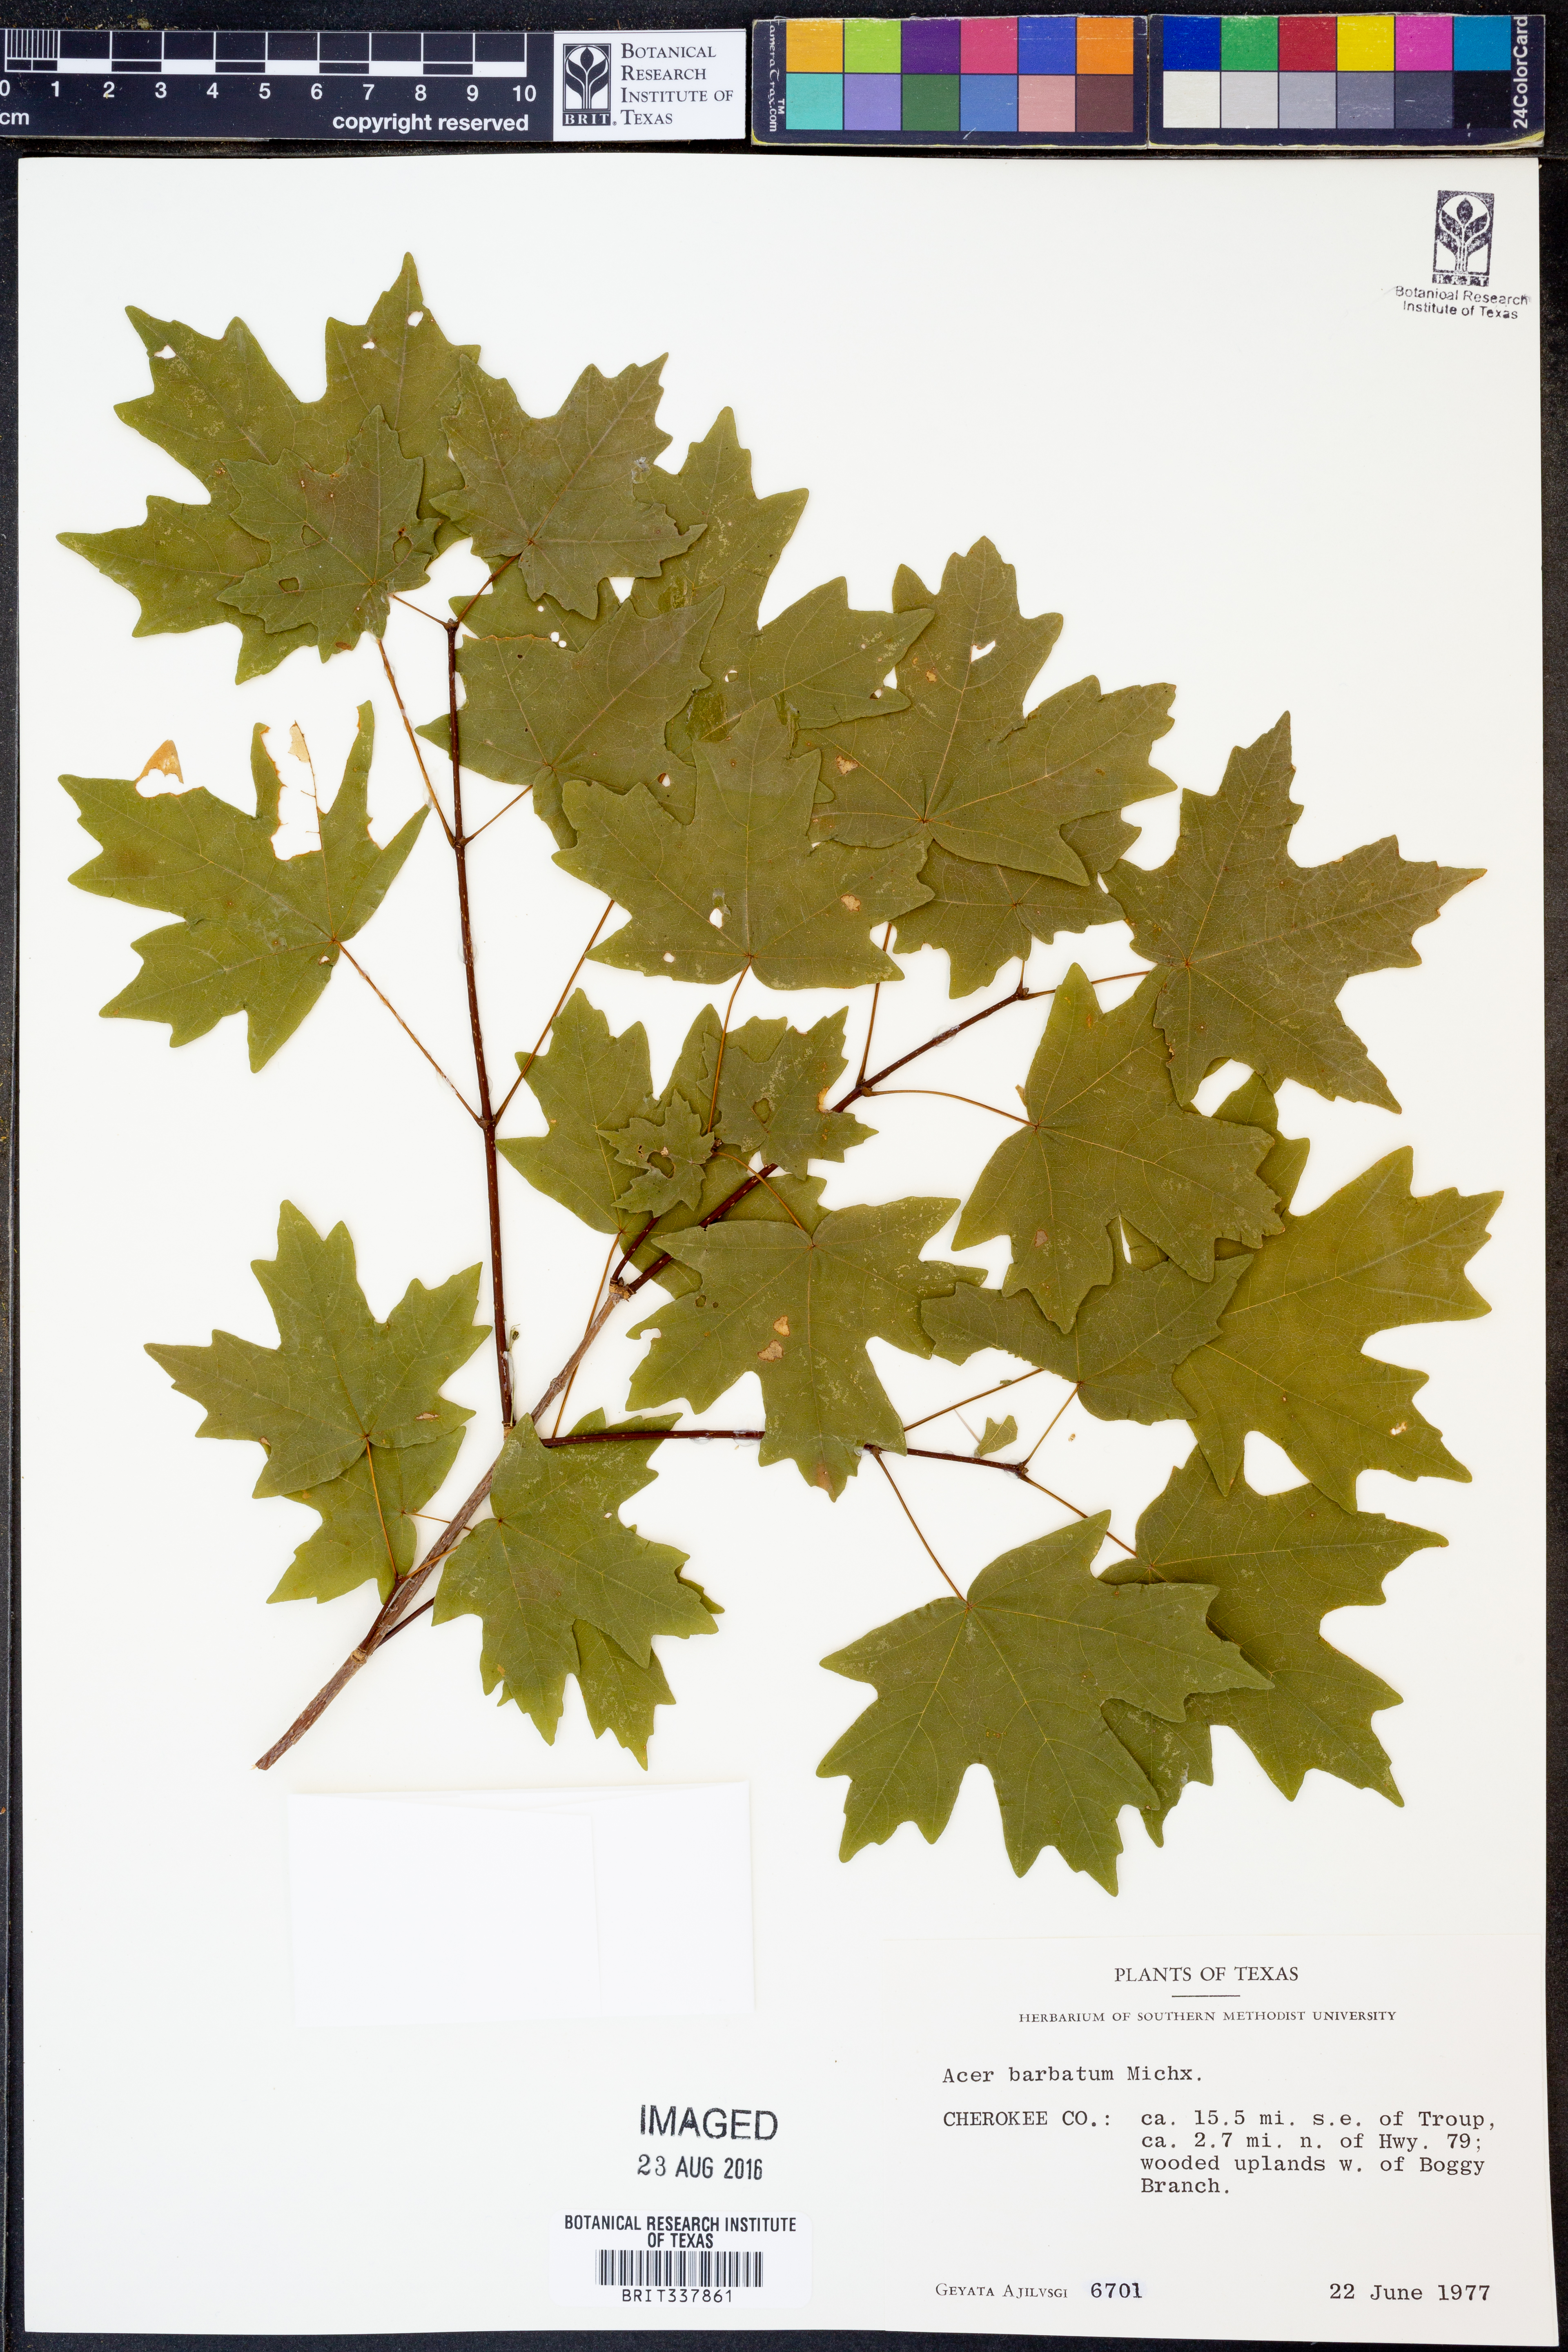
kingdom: Plantae
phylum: Tracheophyta
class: Magnoliopsida
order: Sapindales
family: Sapindaceae
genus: Acer
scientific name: Acer barbatum
